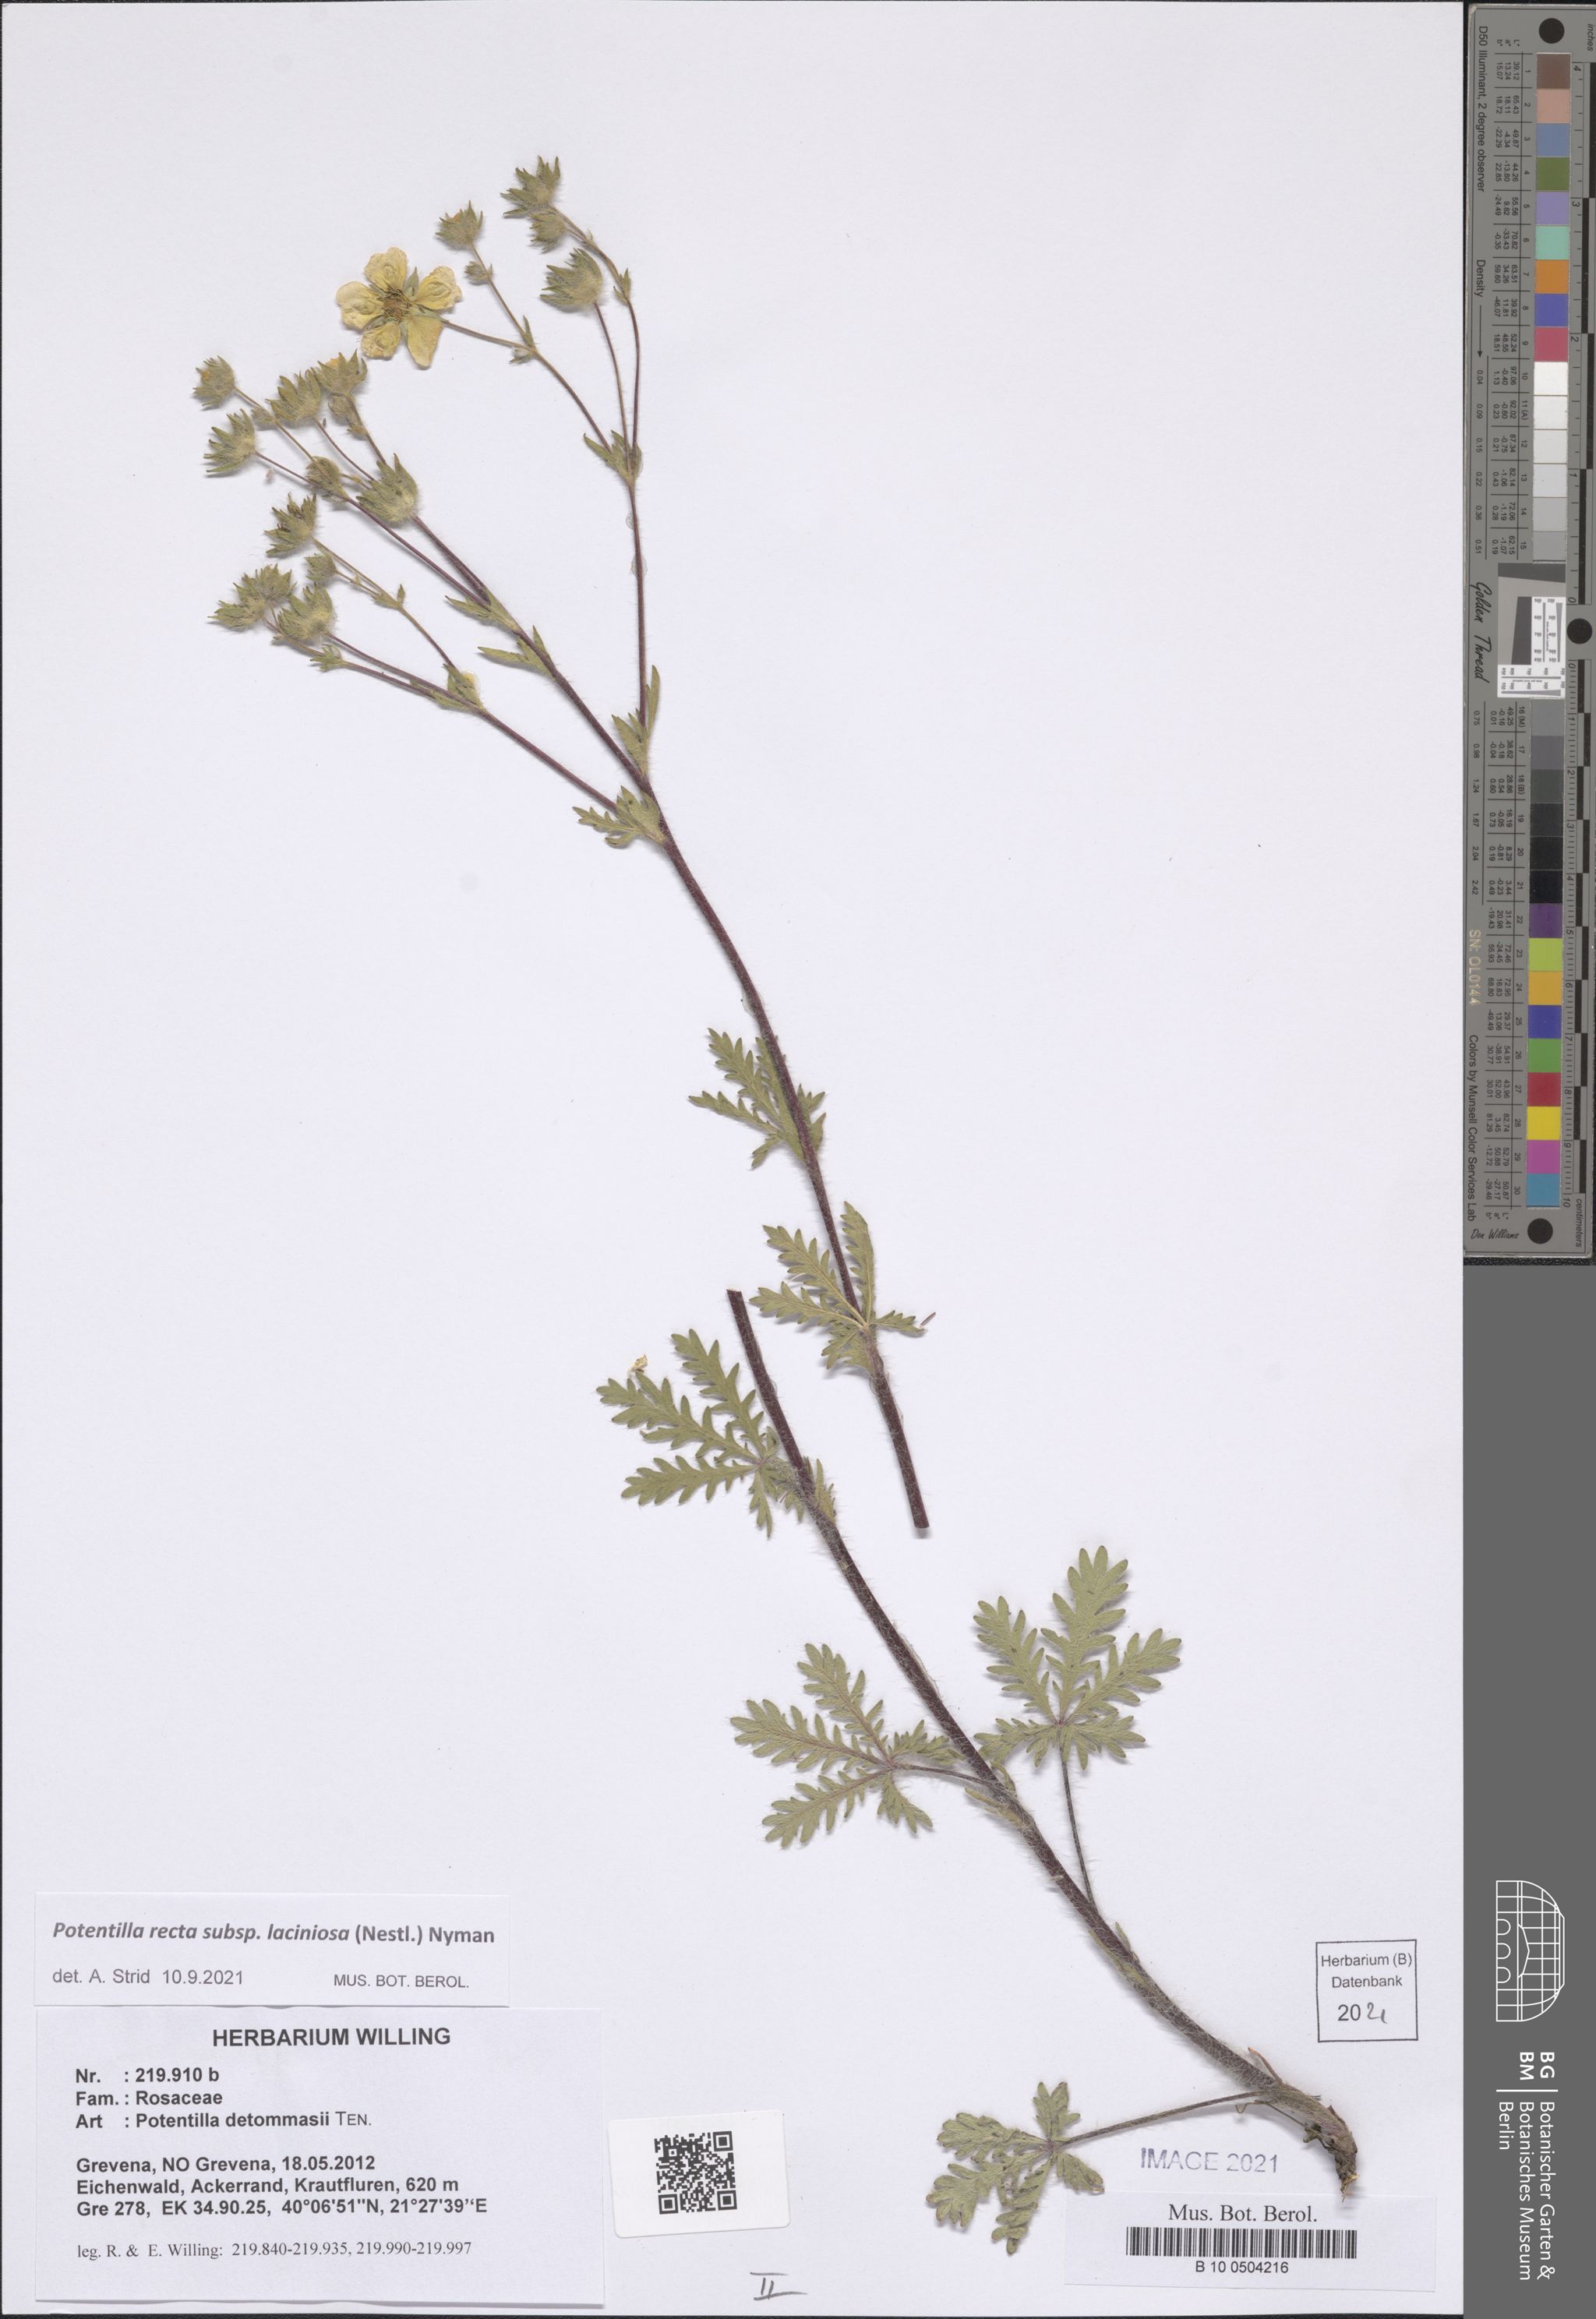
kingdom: Plantae
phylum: Tracheophyta
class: Magnoliopsida
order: Rosales
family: Rosaceae
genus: Potentilla
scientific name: Potentilla recta
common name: Sulphur cinquefoil
